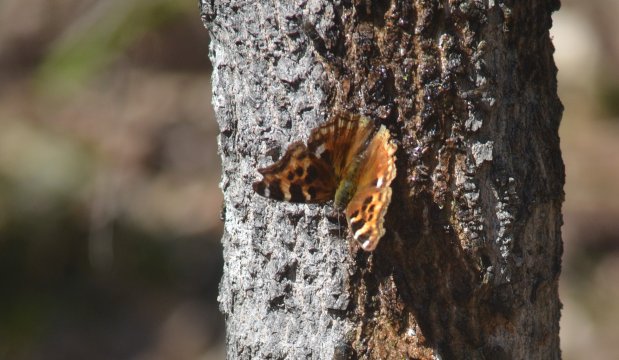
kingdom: Animalia
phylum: Arthropoda
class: Insecta
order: Lepidoptera
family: Nymphalidae
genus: Polygonia
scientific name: Polygonia vaualbum
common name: Compton Tortoiseshell
